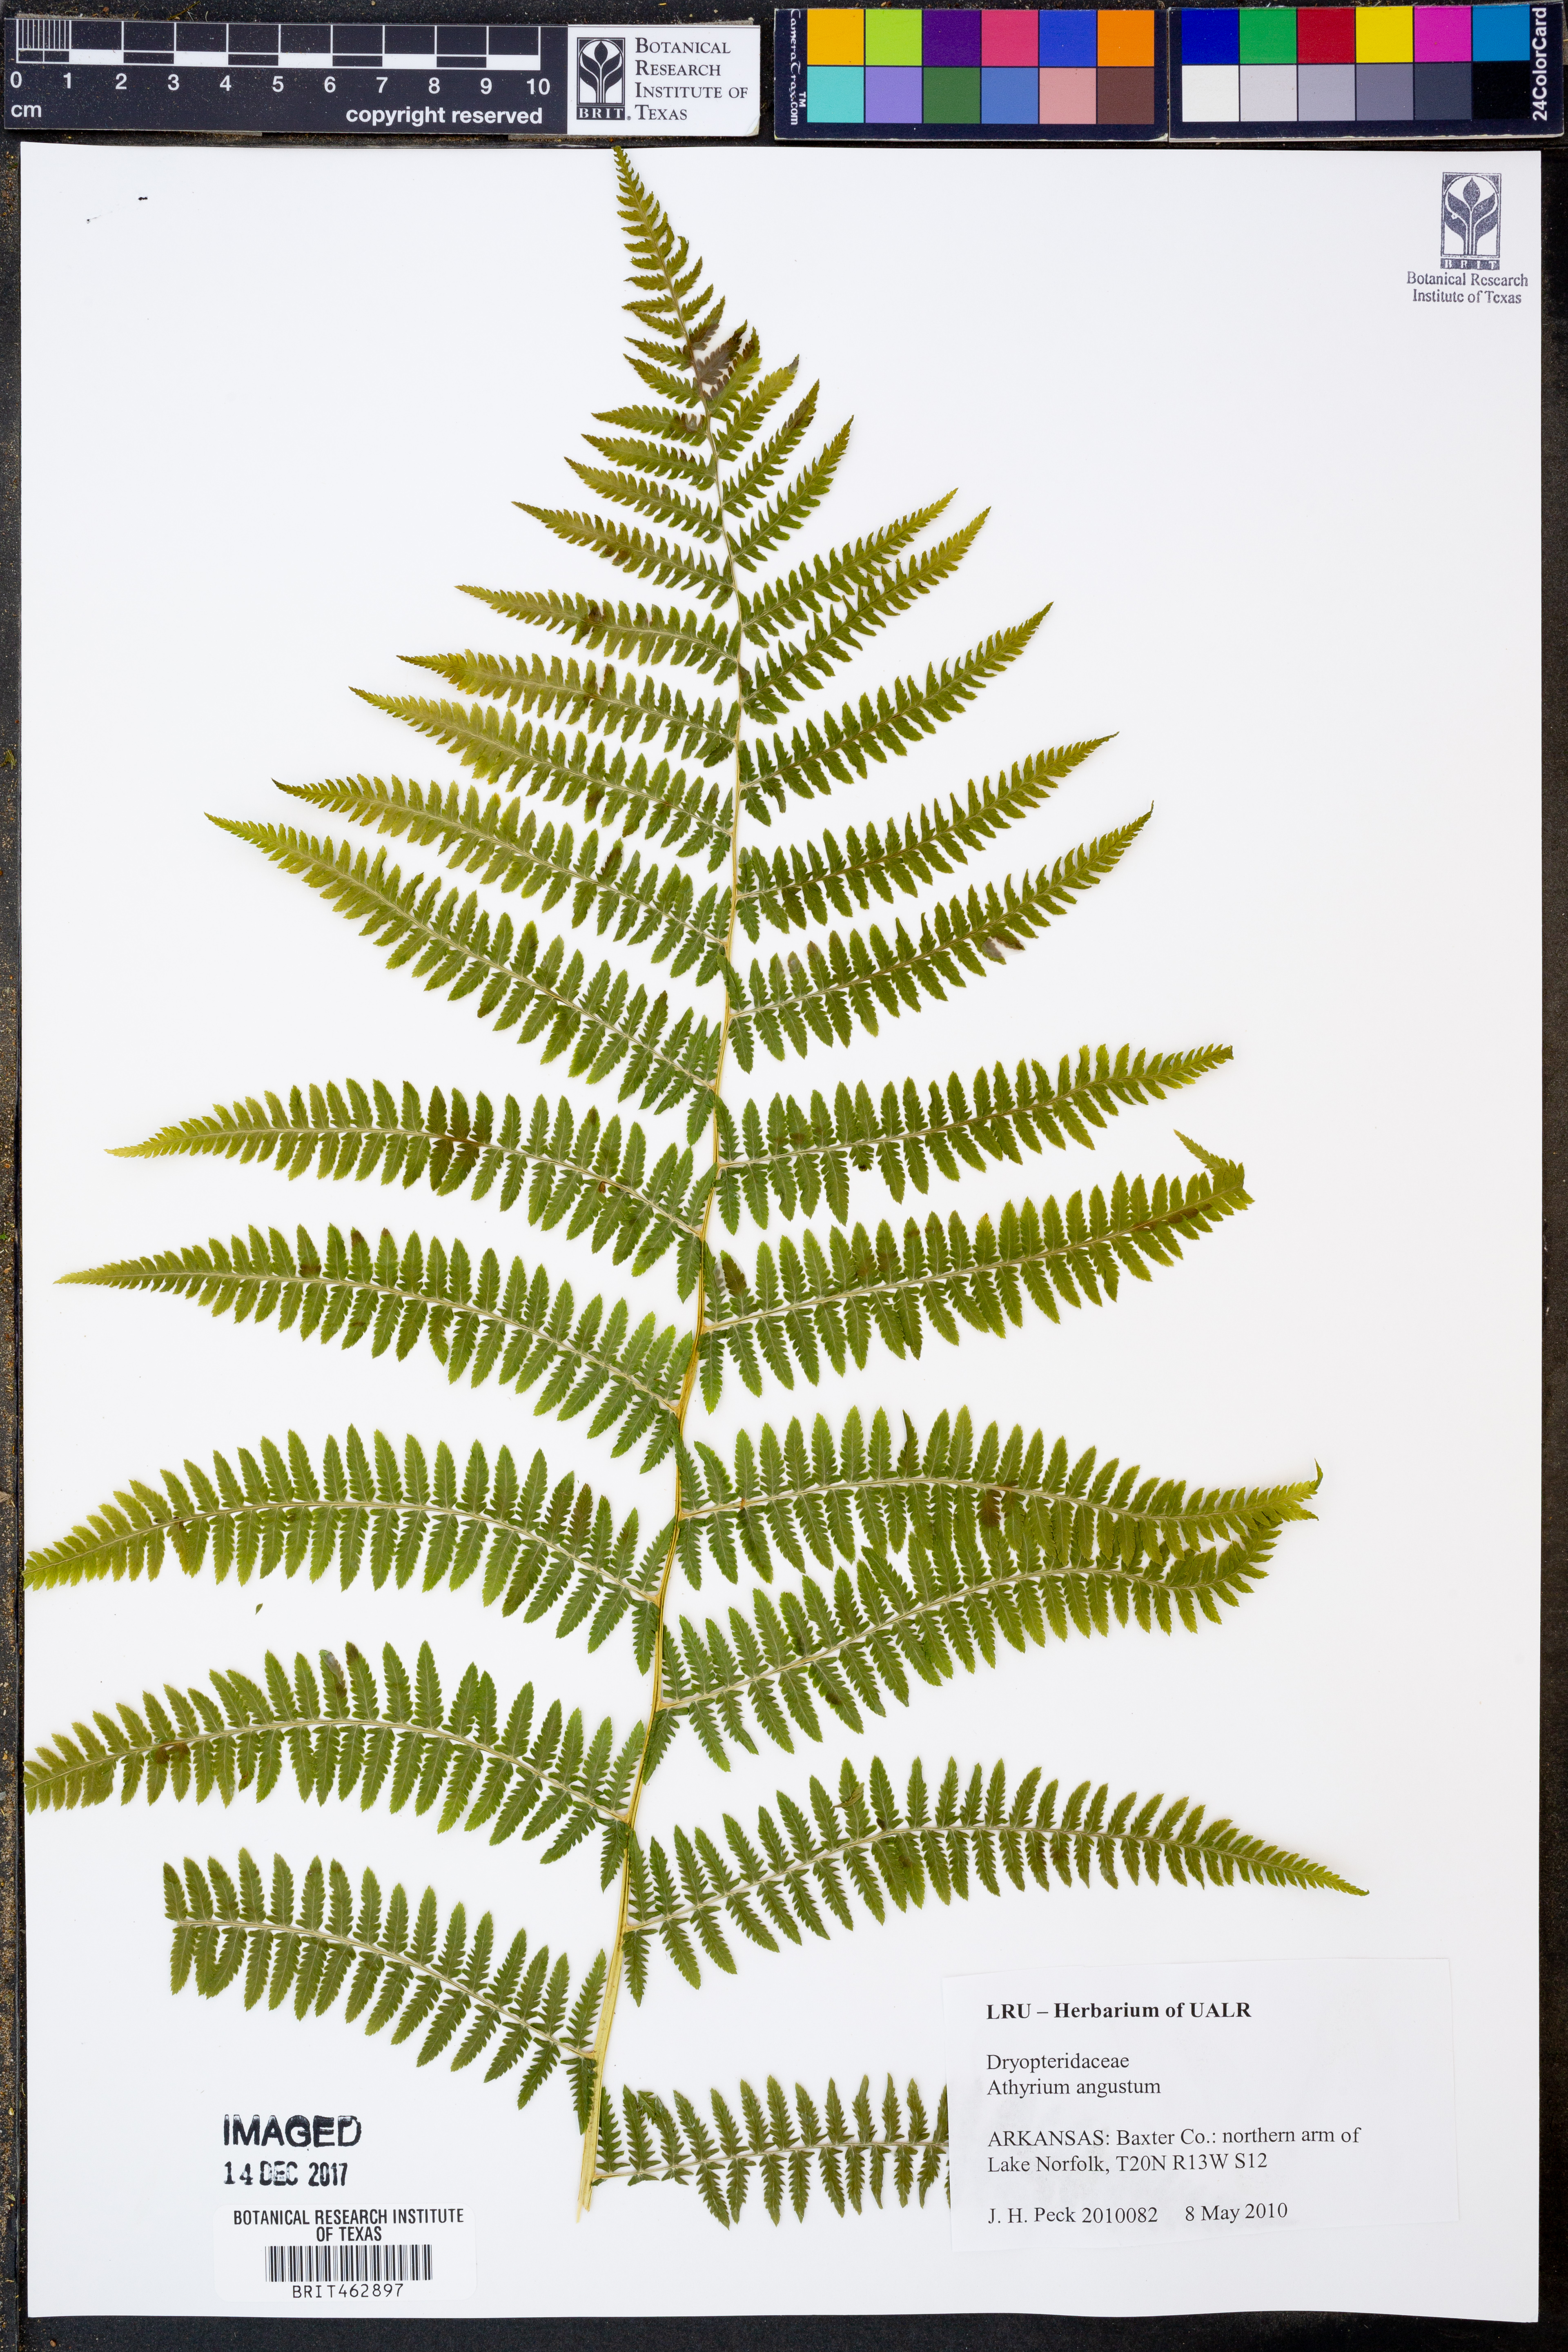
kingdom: Plantae
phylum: Tracheophyta
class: Polypodiopsida
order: Polypodiales
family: Athyriaceae
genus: Athyrium
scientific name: Athyrium angustum
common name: Northern lady fern
